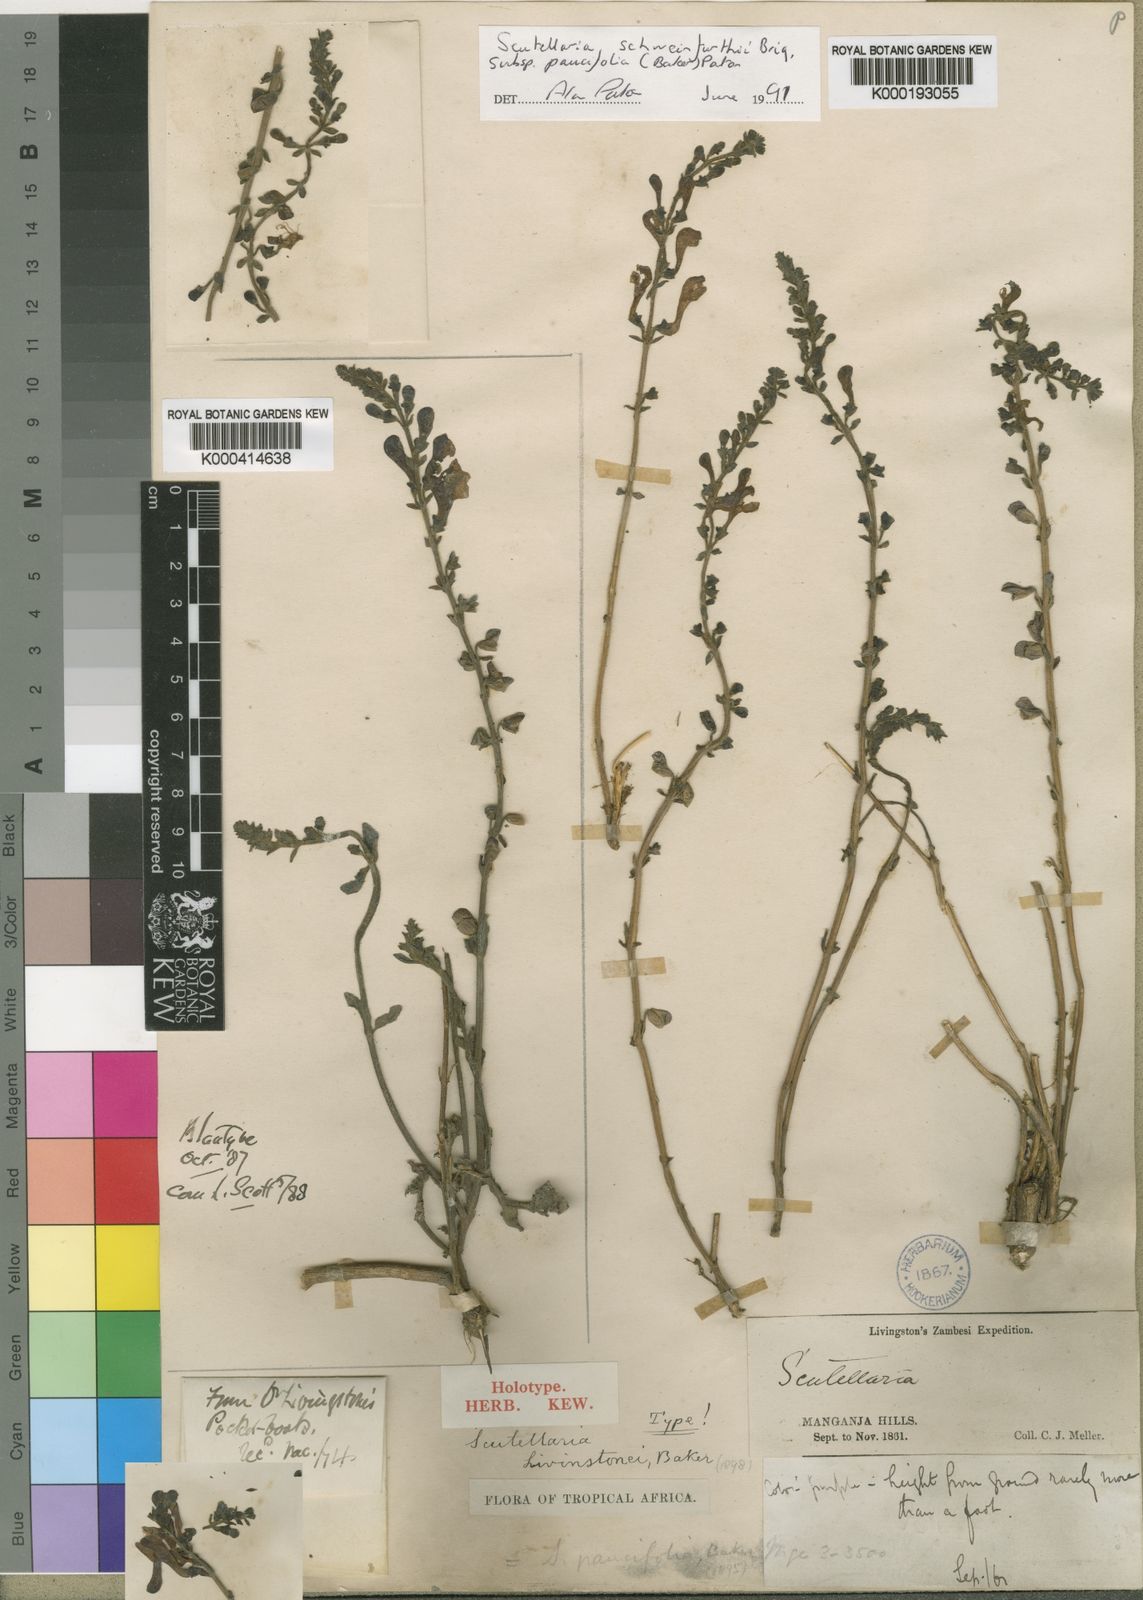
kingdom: Plantae
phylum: Tracheophyta
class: Magnoliopsida
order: Lamiales
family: Lamiaceae
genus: Scutellaria
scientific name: Scutellaria schweinfurthii
